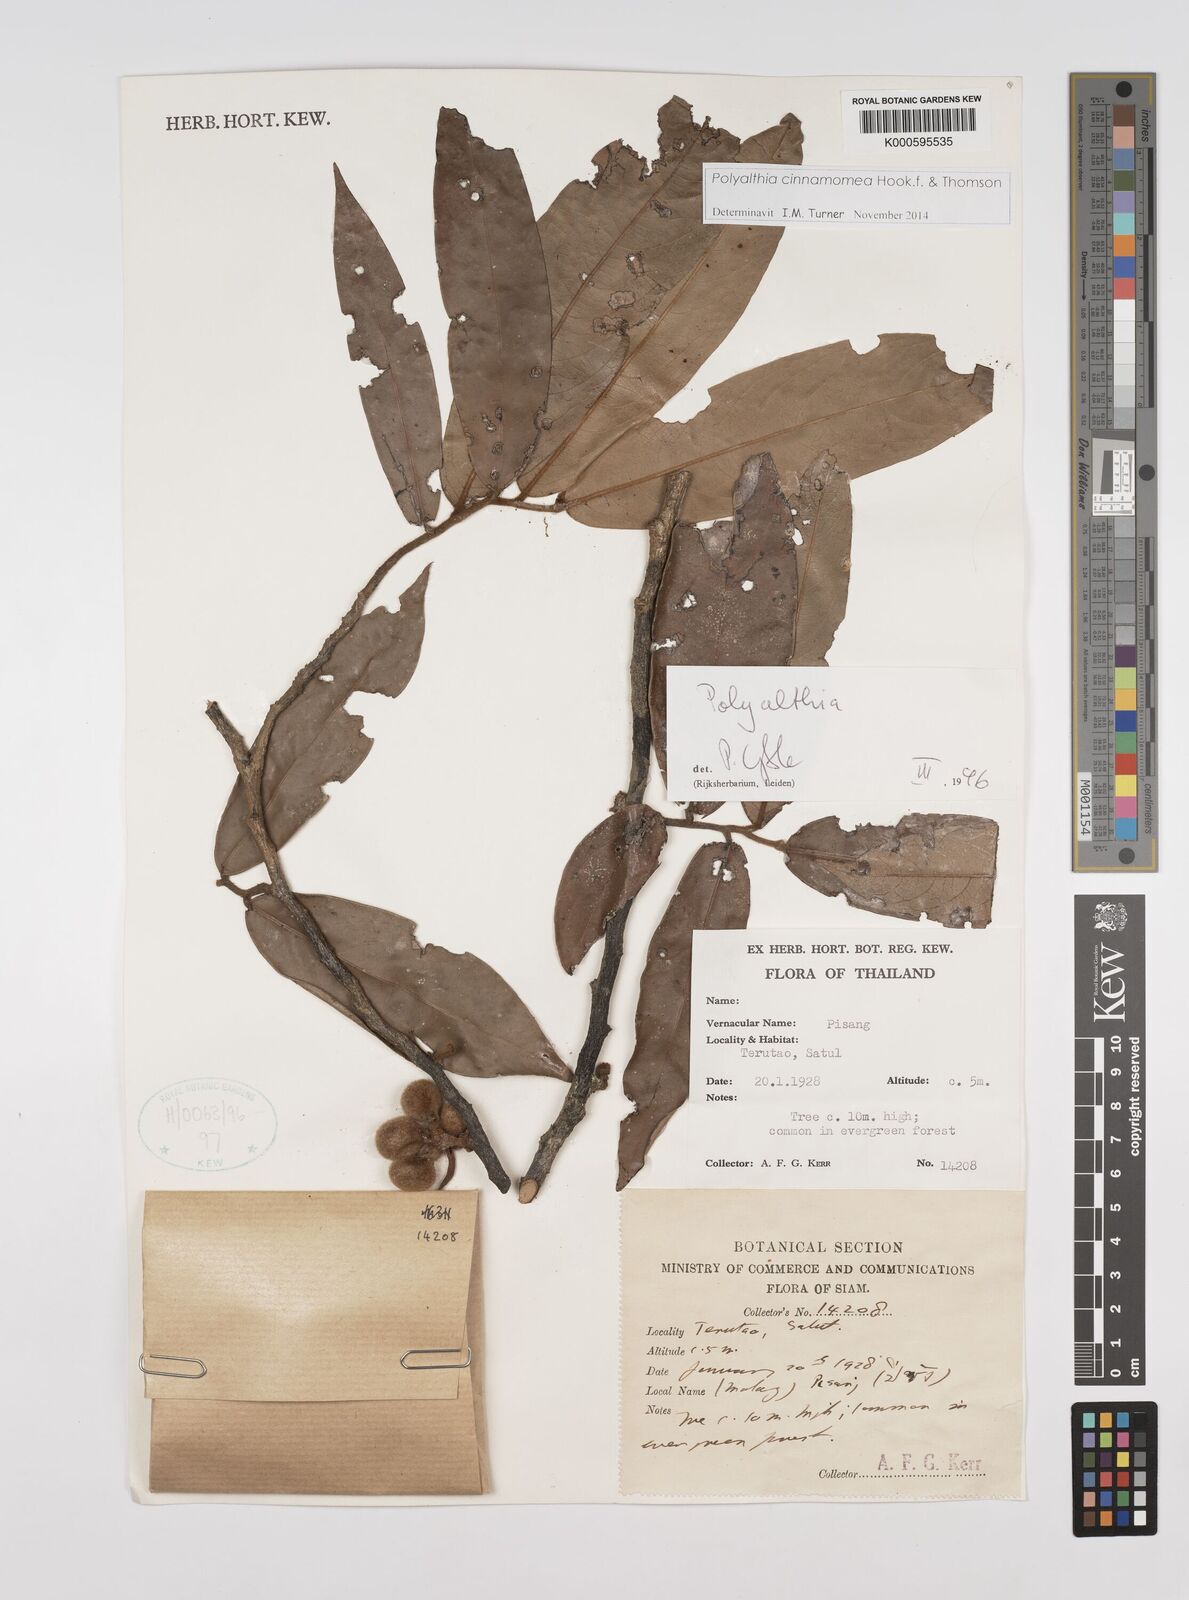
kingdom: Plantae
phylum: Tracheophyta
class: Magnoliopsida
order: Magnoliales
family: Annonaceae
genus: Polyalthia
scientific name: Polyalthia
